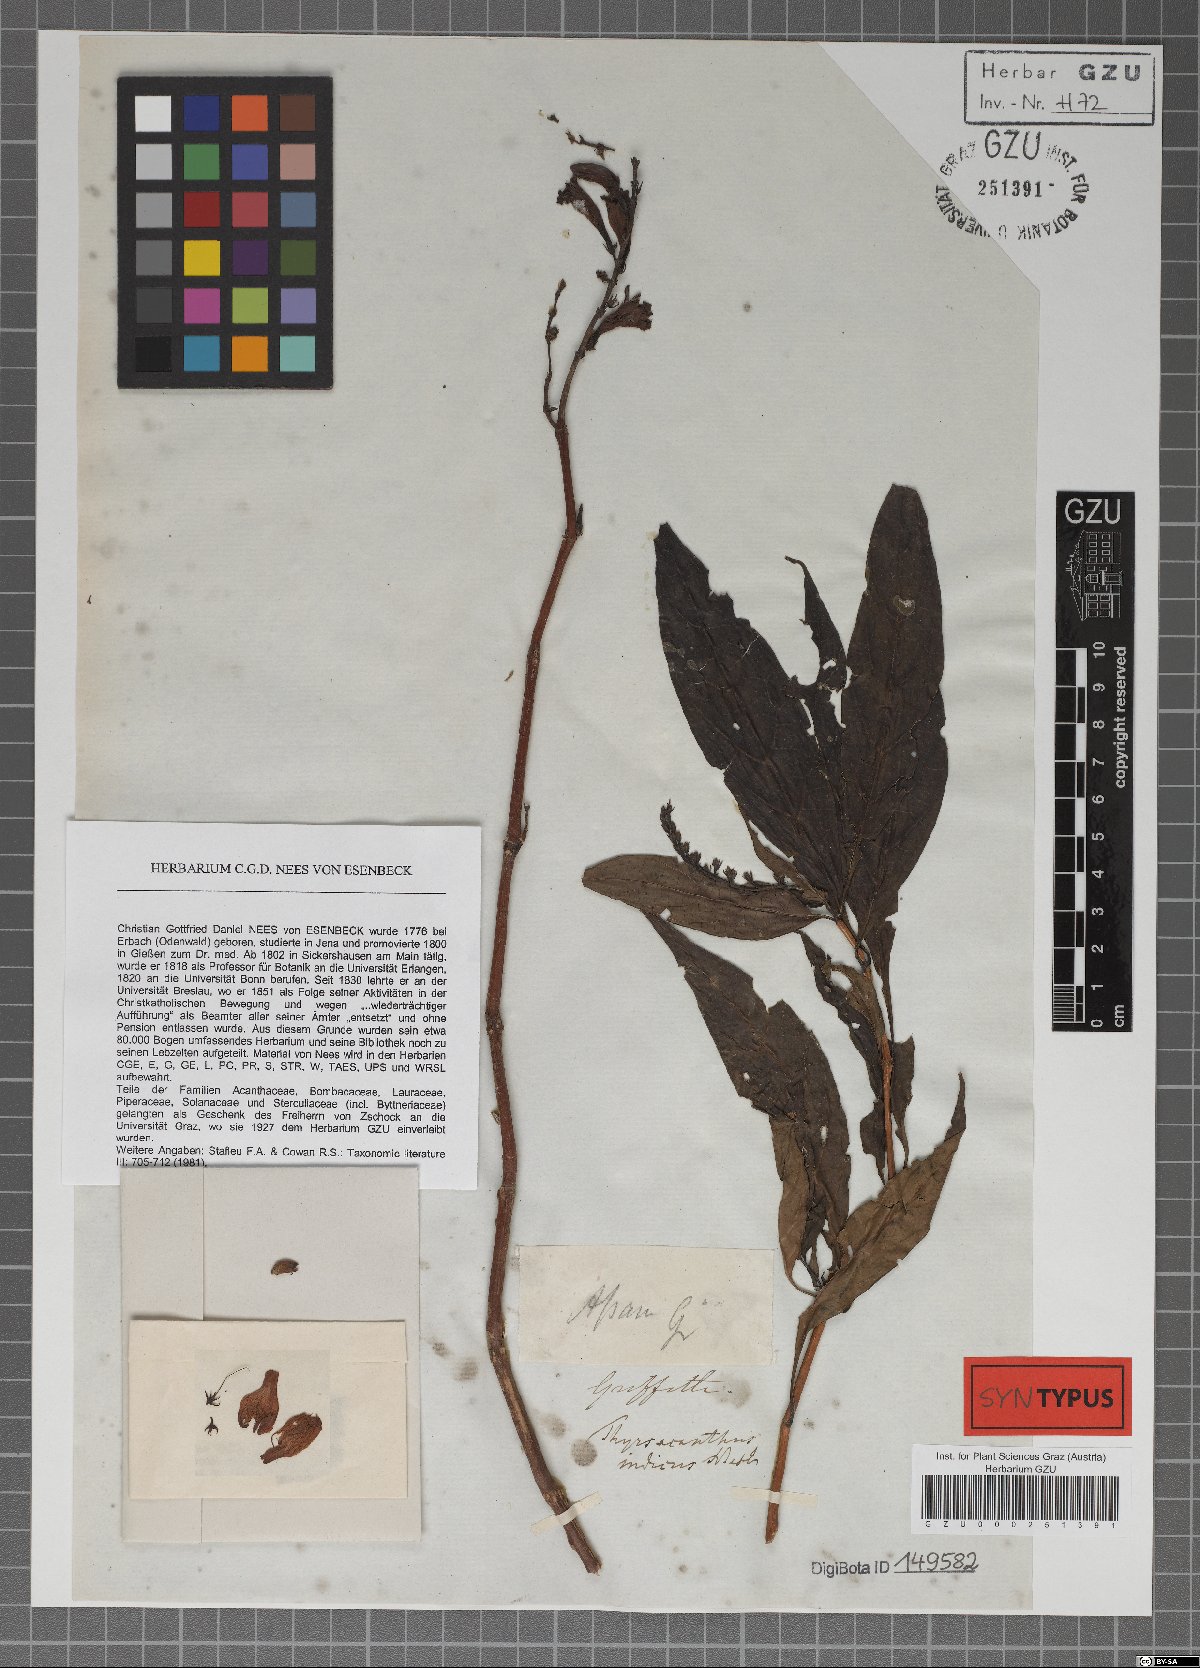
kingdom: Plantae
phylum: Tracheophyta
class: Magnoliopsida
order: Lamiales
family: Acanthaceae
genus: Mackaya
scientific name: Mackaya indica
